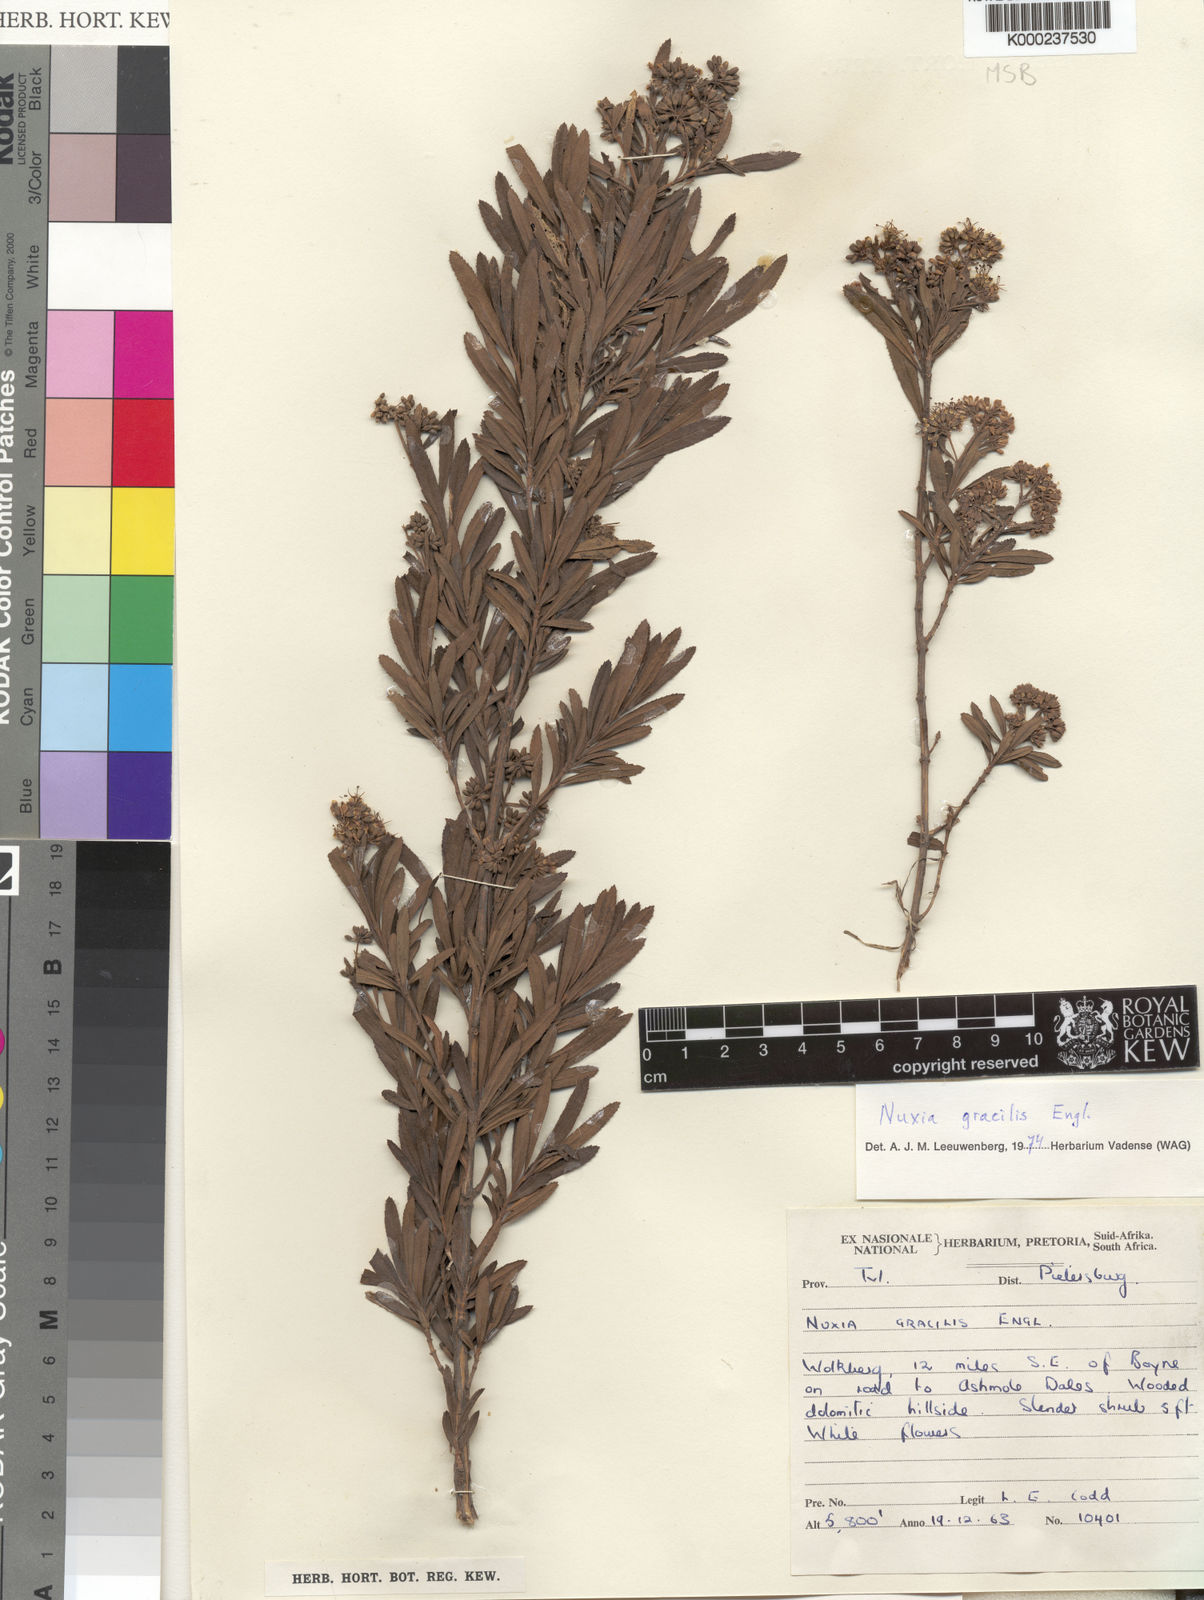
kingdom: Plantae
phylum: Tracheophyta
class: Magnoliopsida
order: Lamiales
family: Stilbaceae
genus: Nuxia
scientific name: Nuxia gracilis
